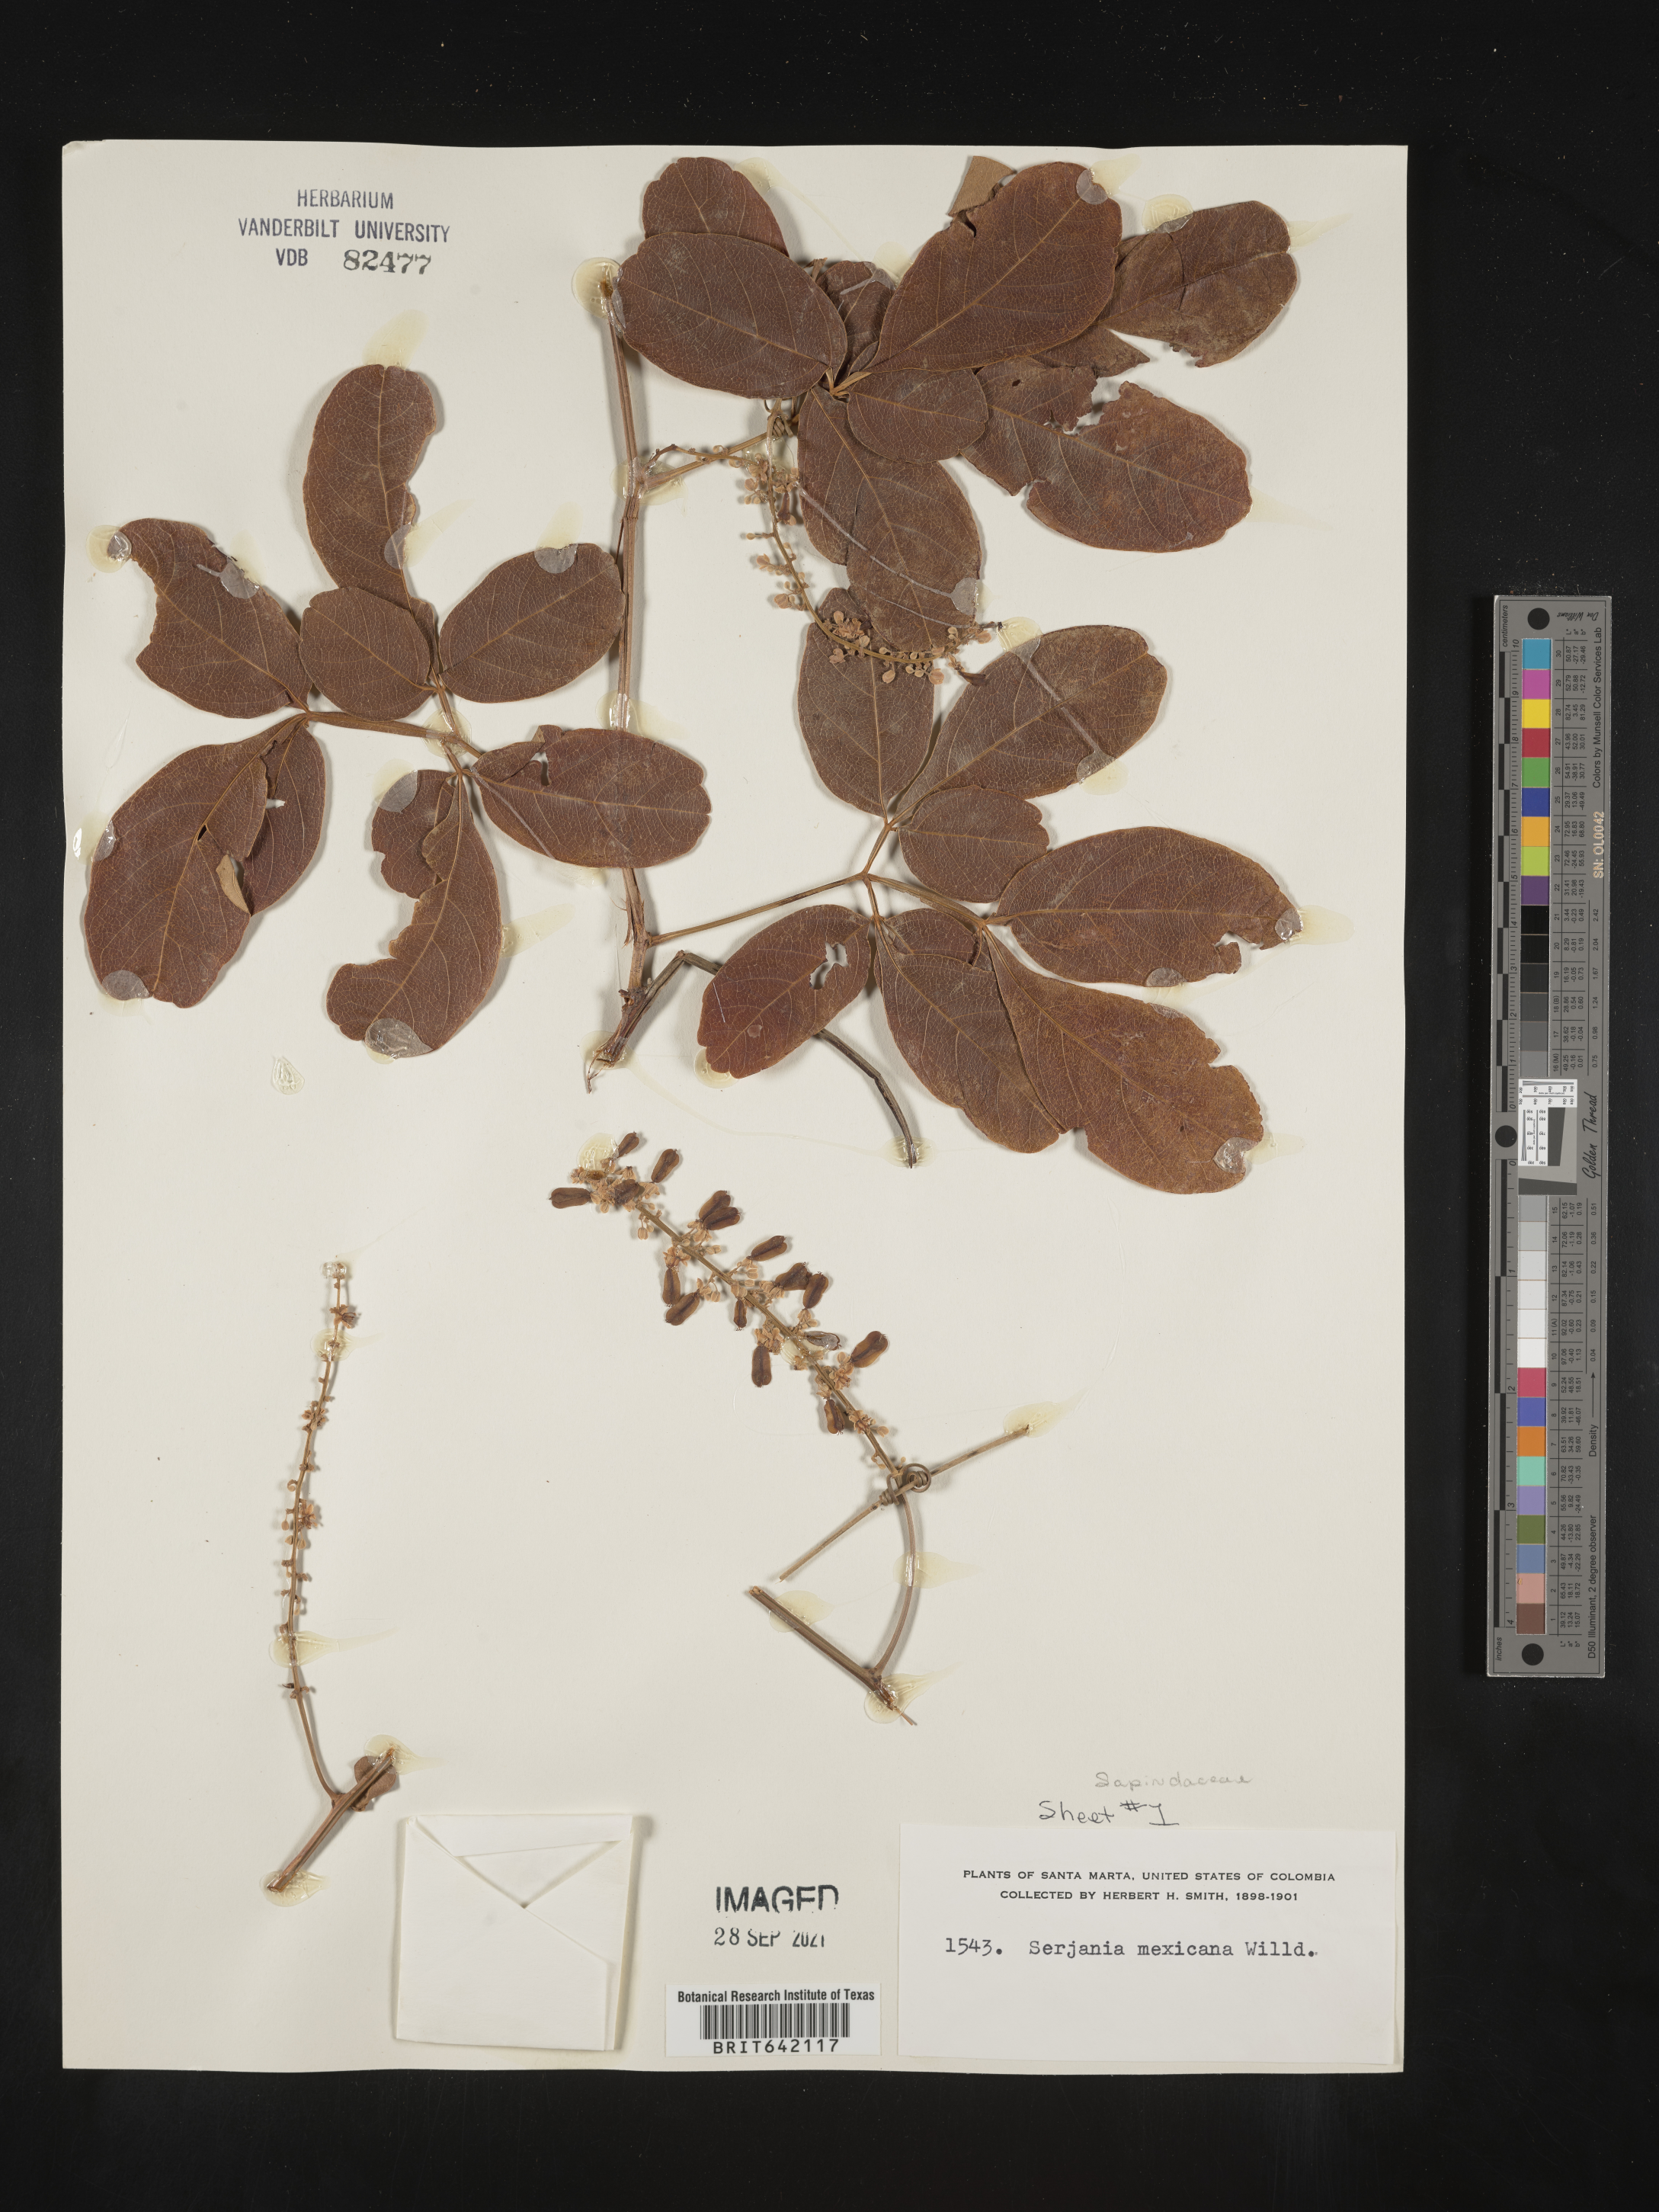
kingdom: Plantae
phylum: Tracheophyta
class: Magnoliopsida
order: Sapindales
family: Sapindaceae
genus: Serjania
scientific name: Serjania
